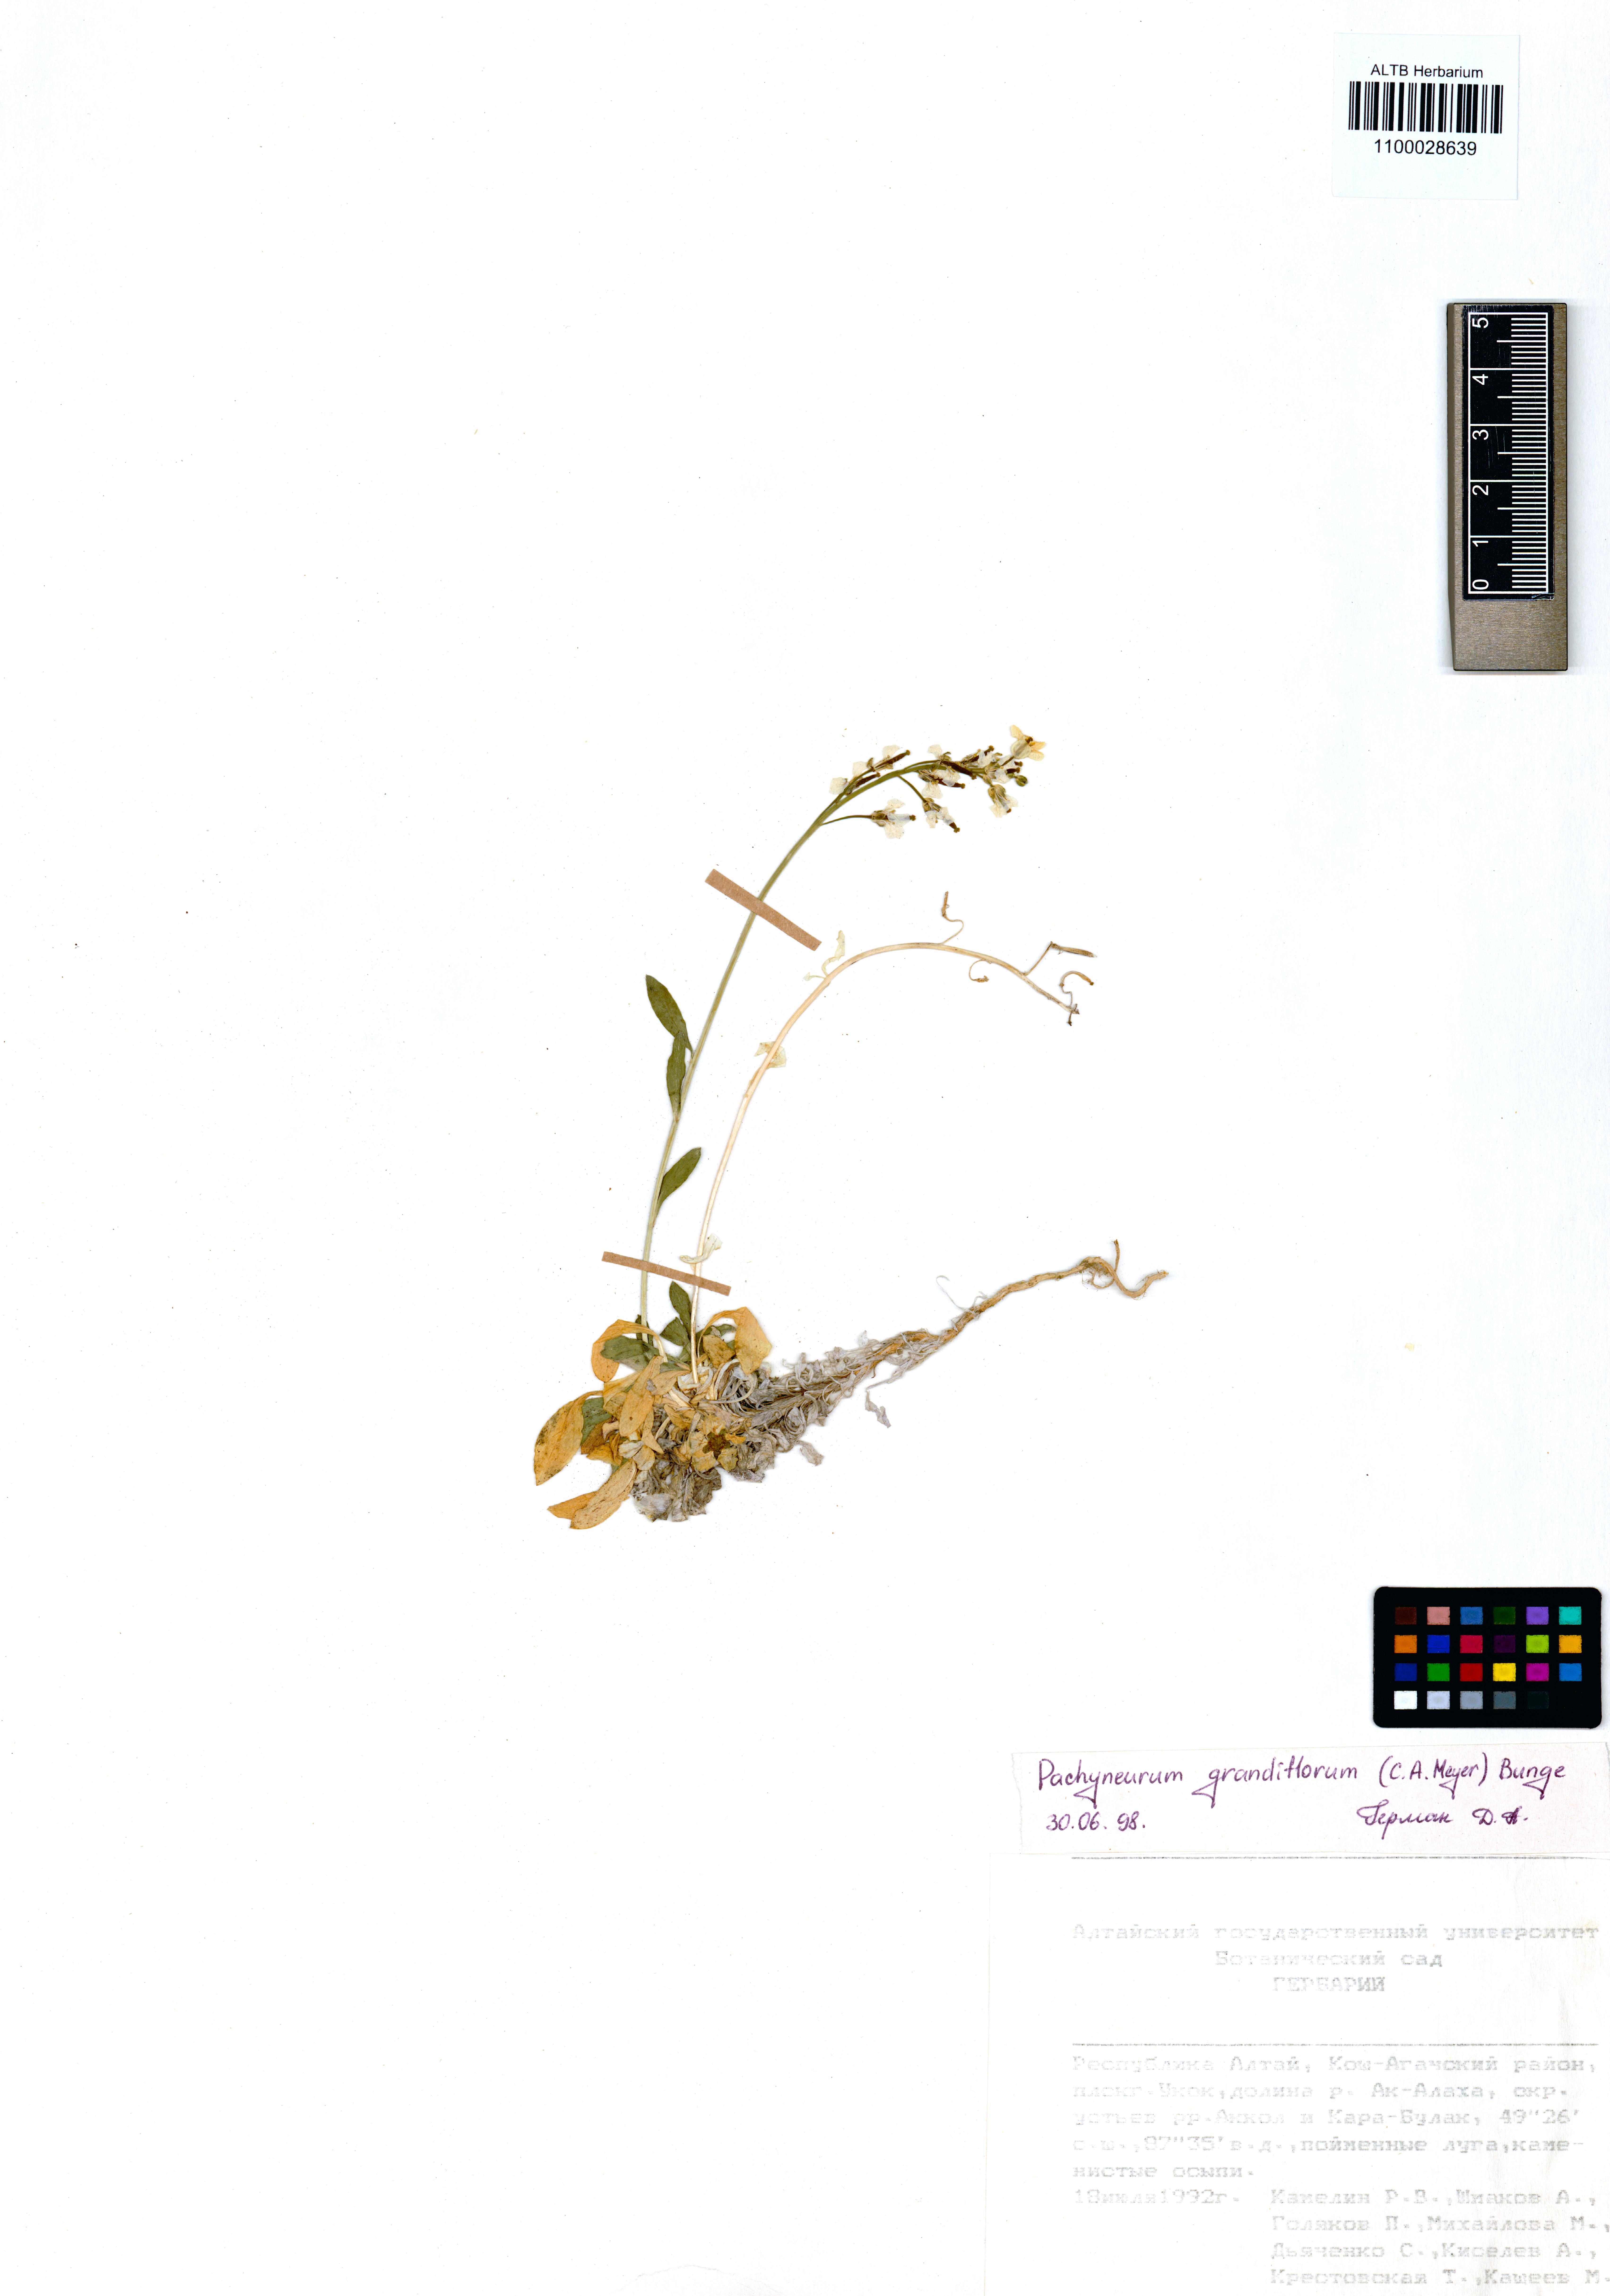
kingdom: Plantae
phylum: Tracheophyta
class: Magnoliopsida
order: Brassicales
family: Brassicaceae
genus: Pachyneurum
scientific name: Pachyneurum grandiflorum
